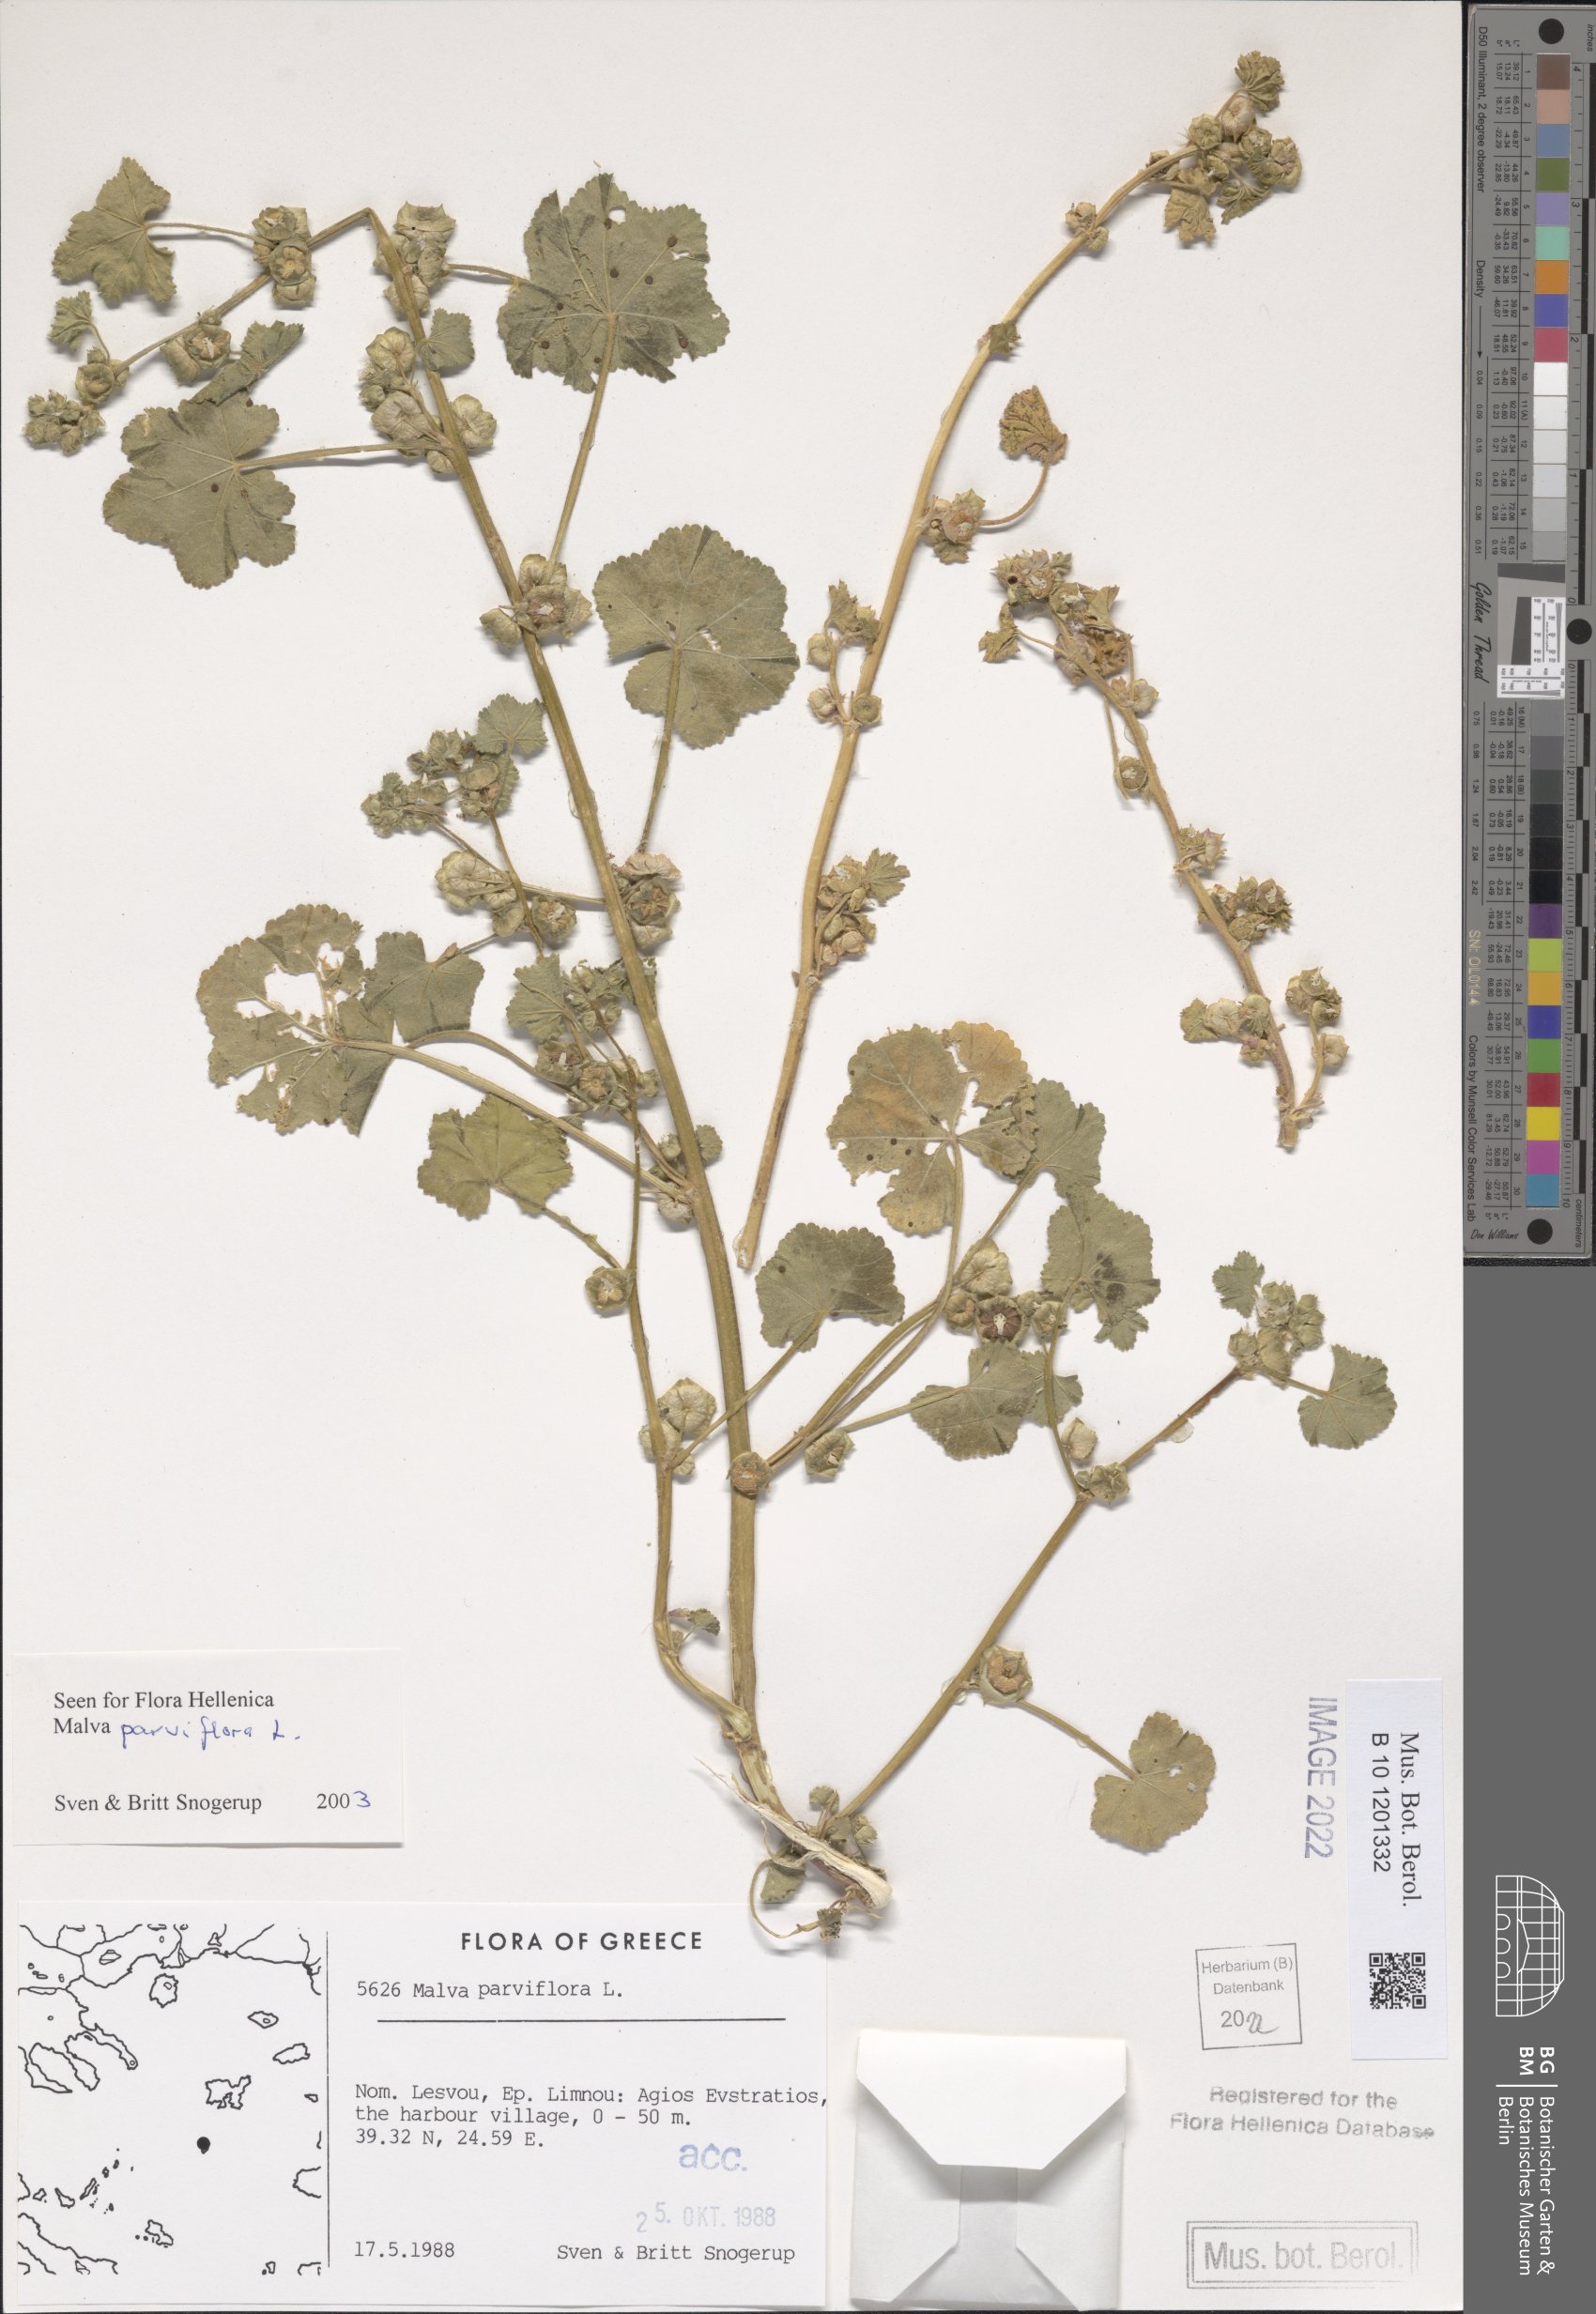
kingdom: Plantae
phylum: Tracheophyta
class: Magnoliopsida
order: Malvales
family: Malvaceae
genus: Malva
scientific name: Malva parviflora
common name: Least mallow
